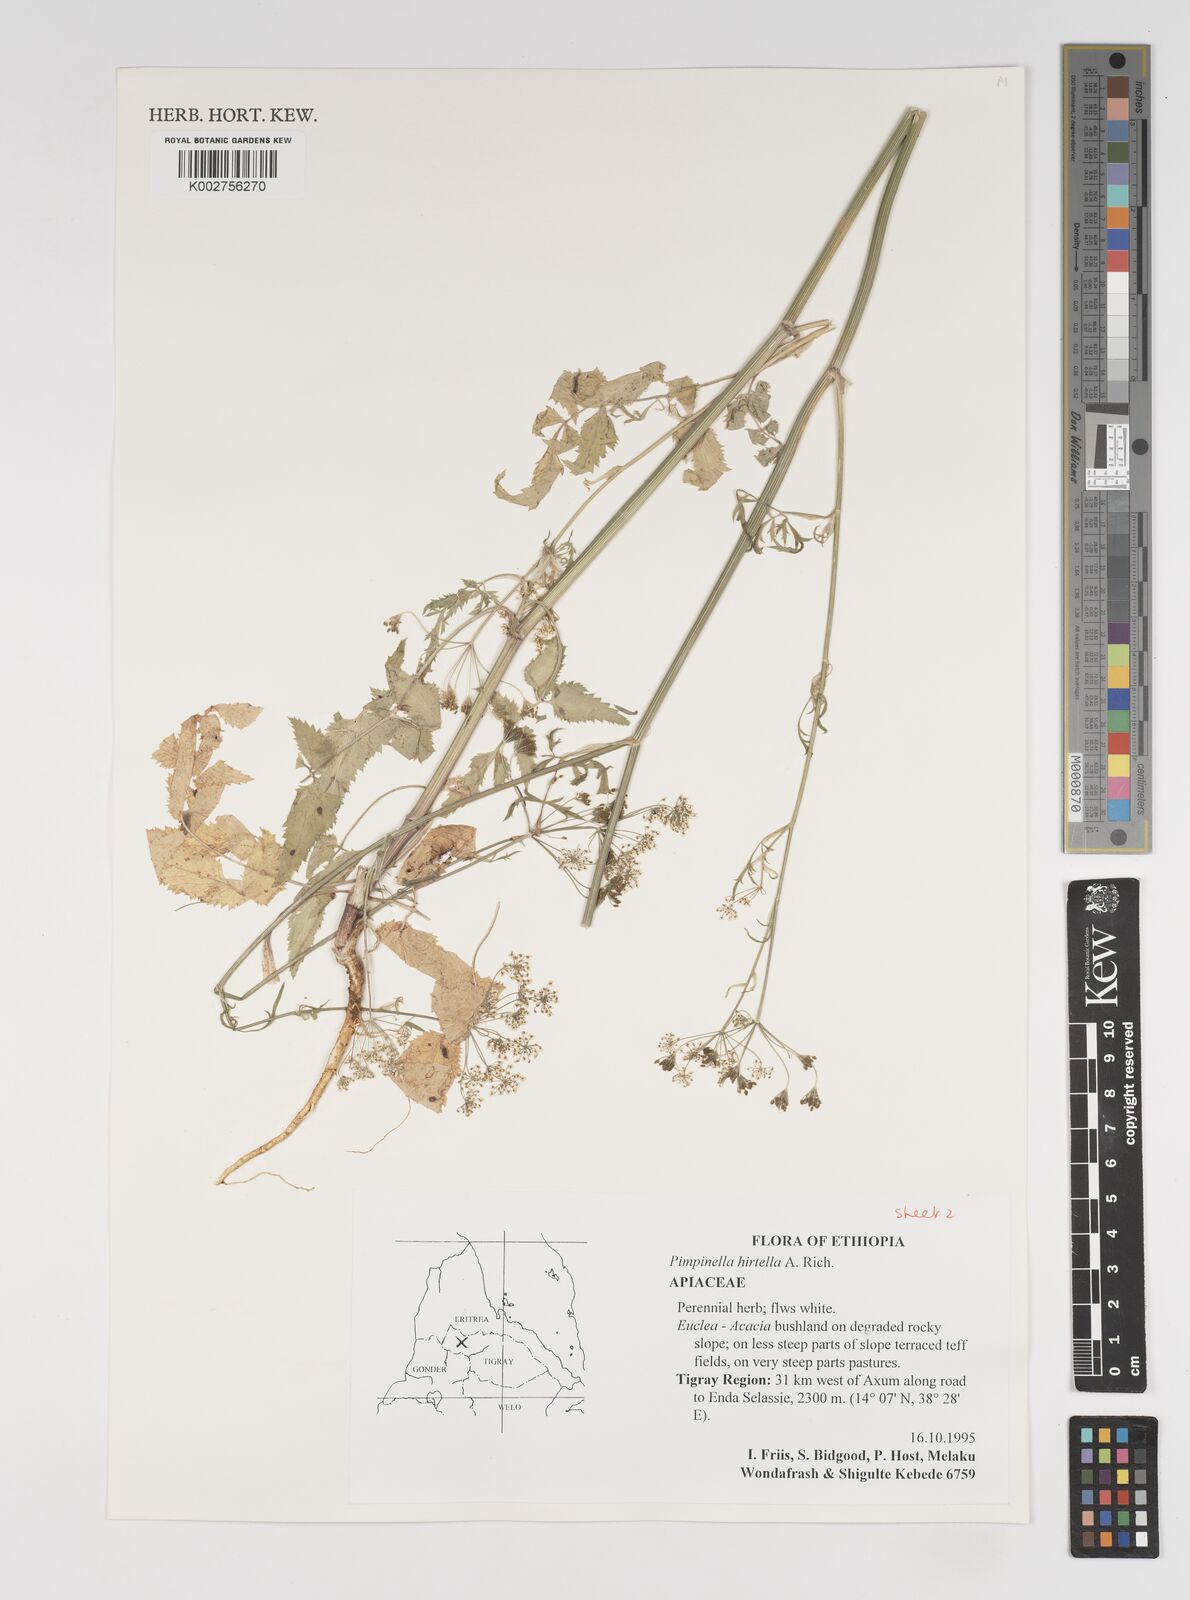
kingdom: Plantae
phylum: Tracheophyta
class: Magnoliopsida
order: Apiales
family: Apiaceae
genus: Pimpinella
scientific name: Pimpinella hirtella
